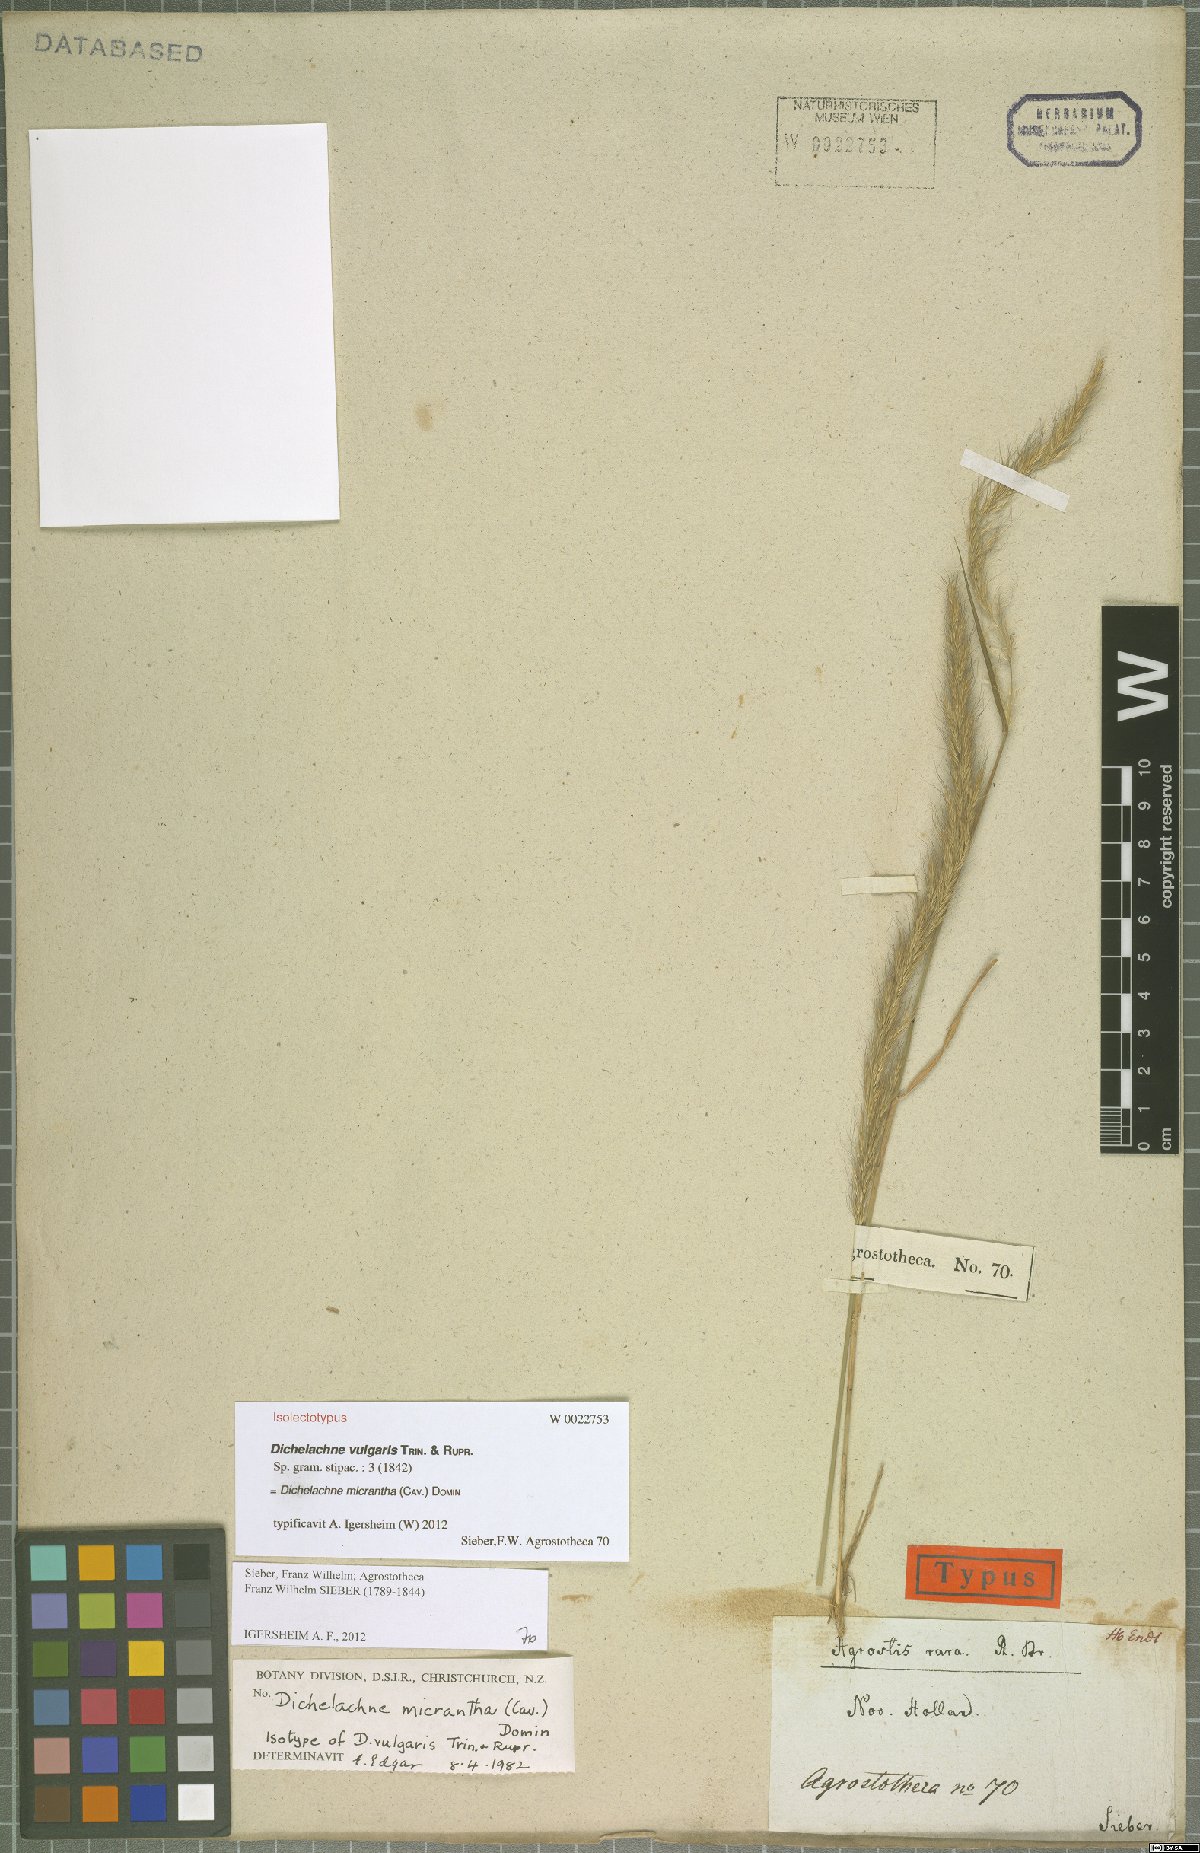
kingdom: Plantae
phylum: Tracheophyta
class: Liliopsida
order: Poales
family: Poaceae
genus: Dichelachne
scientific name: Dichelachne micrantha
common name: Plumegrass
